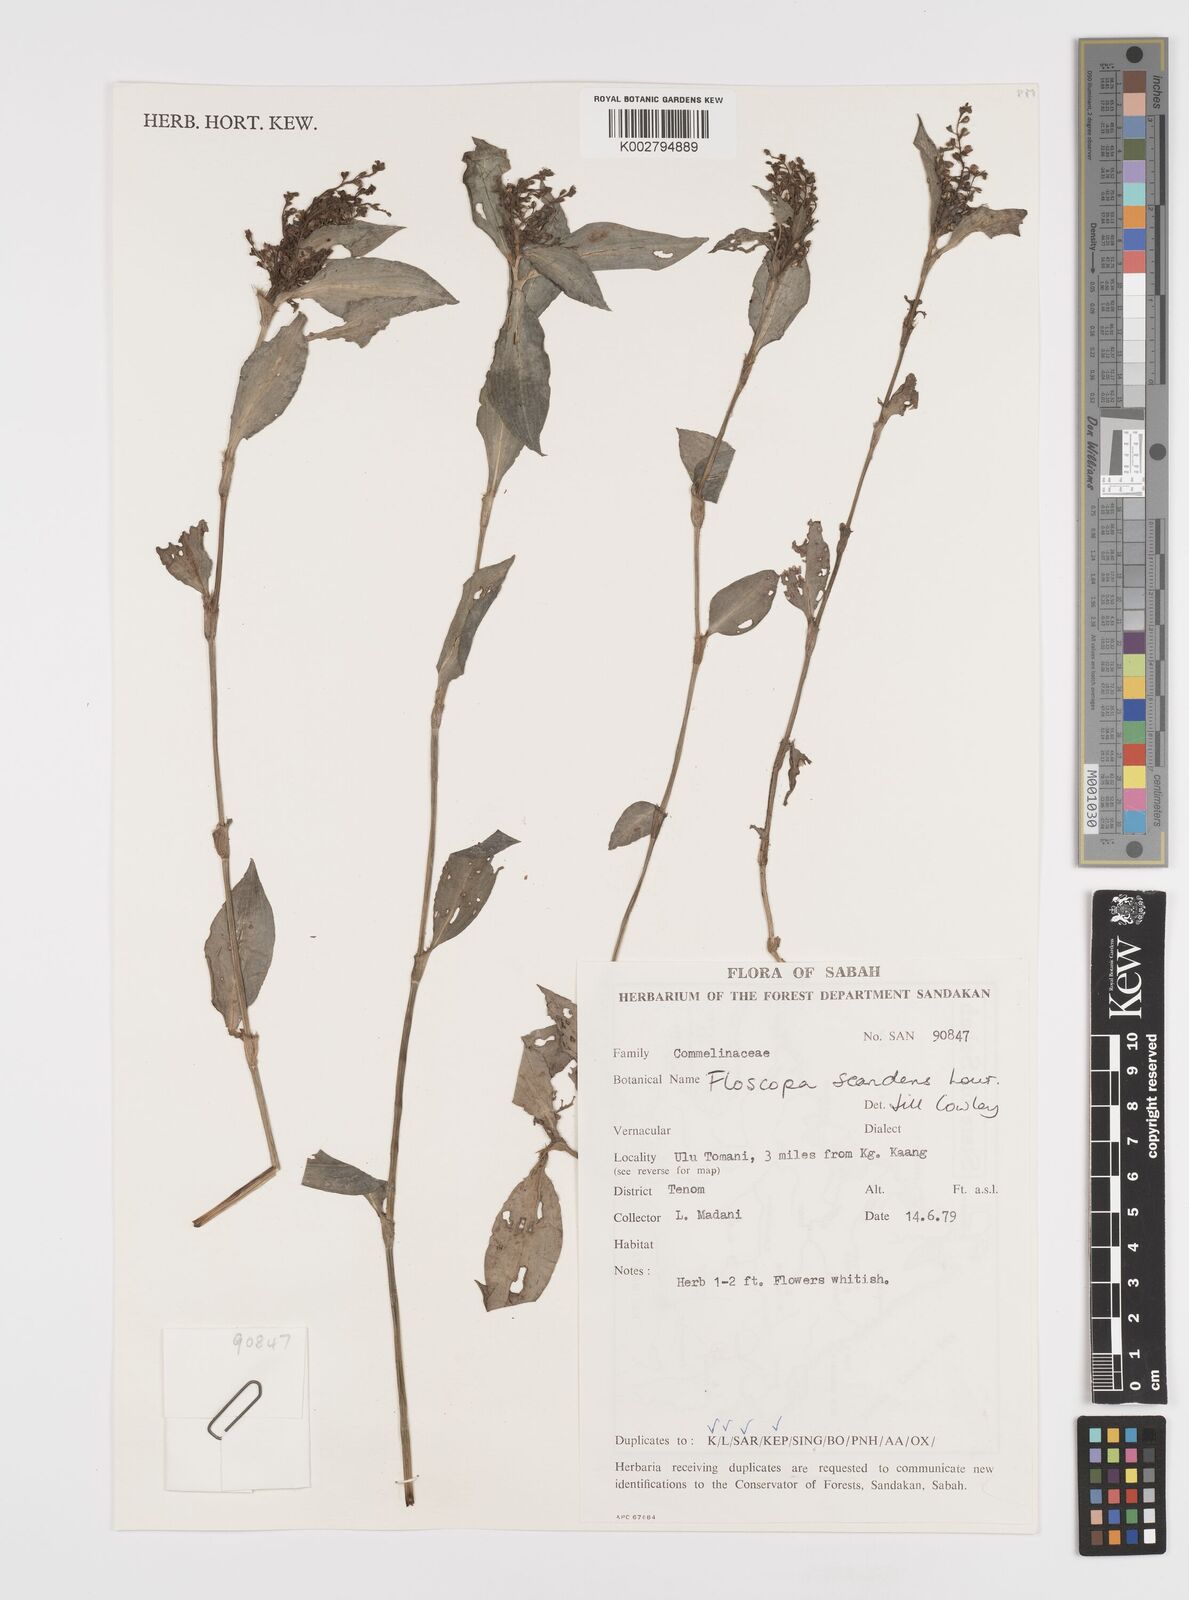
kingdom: Plantae
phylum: Tracheophyta
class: Liliopsida
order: Commelinales
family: Commelinaceae
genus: Floscopa
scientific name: Floscopa scandens
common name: Climbing flower cup
